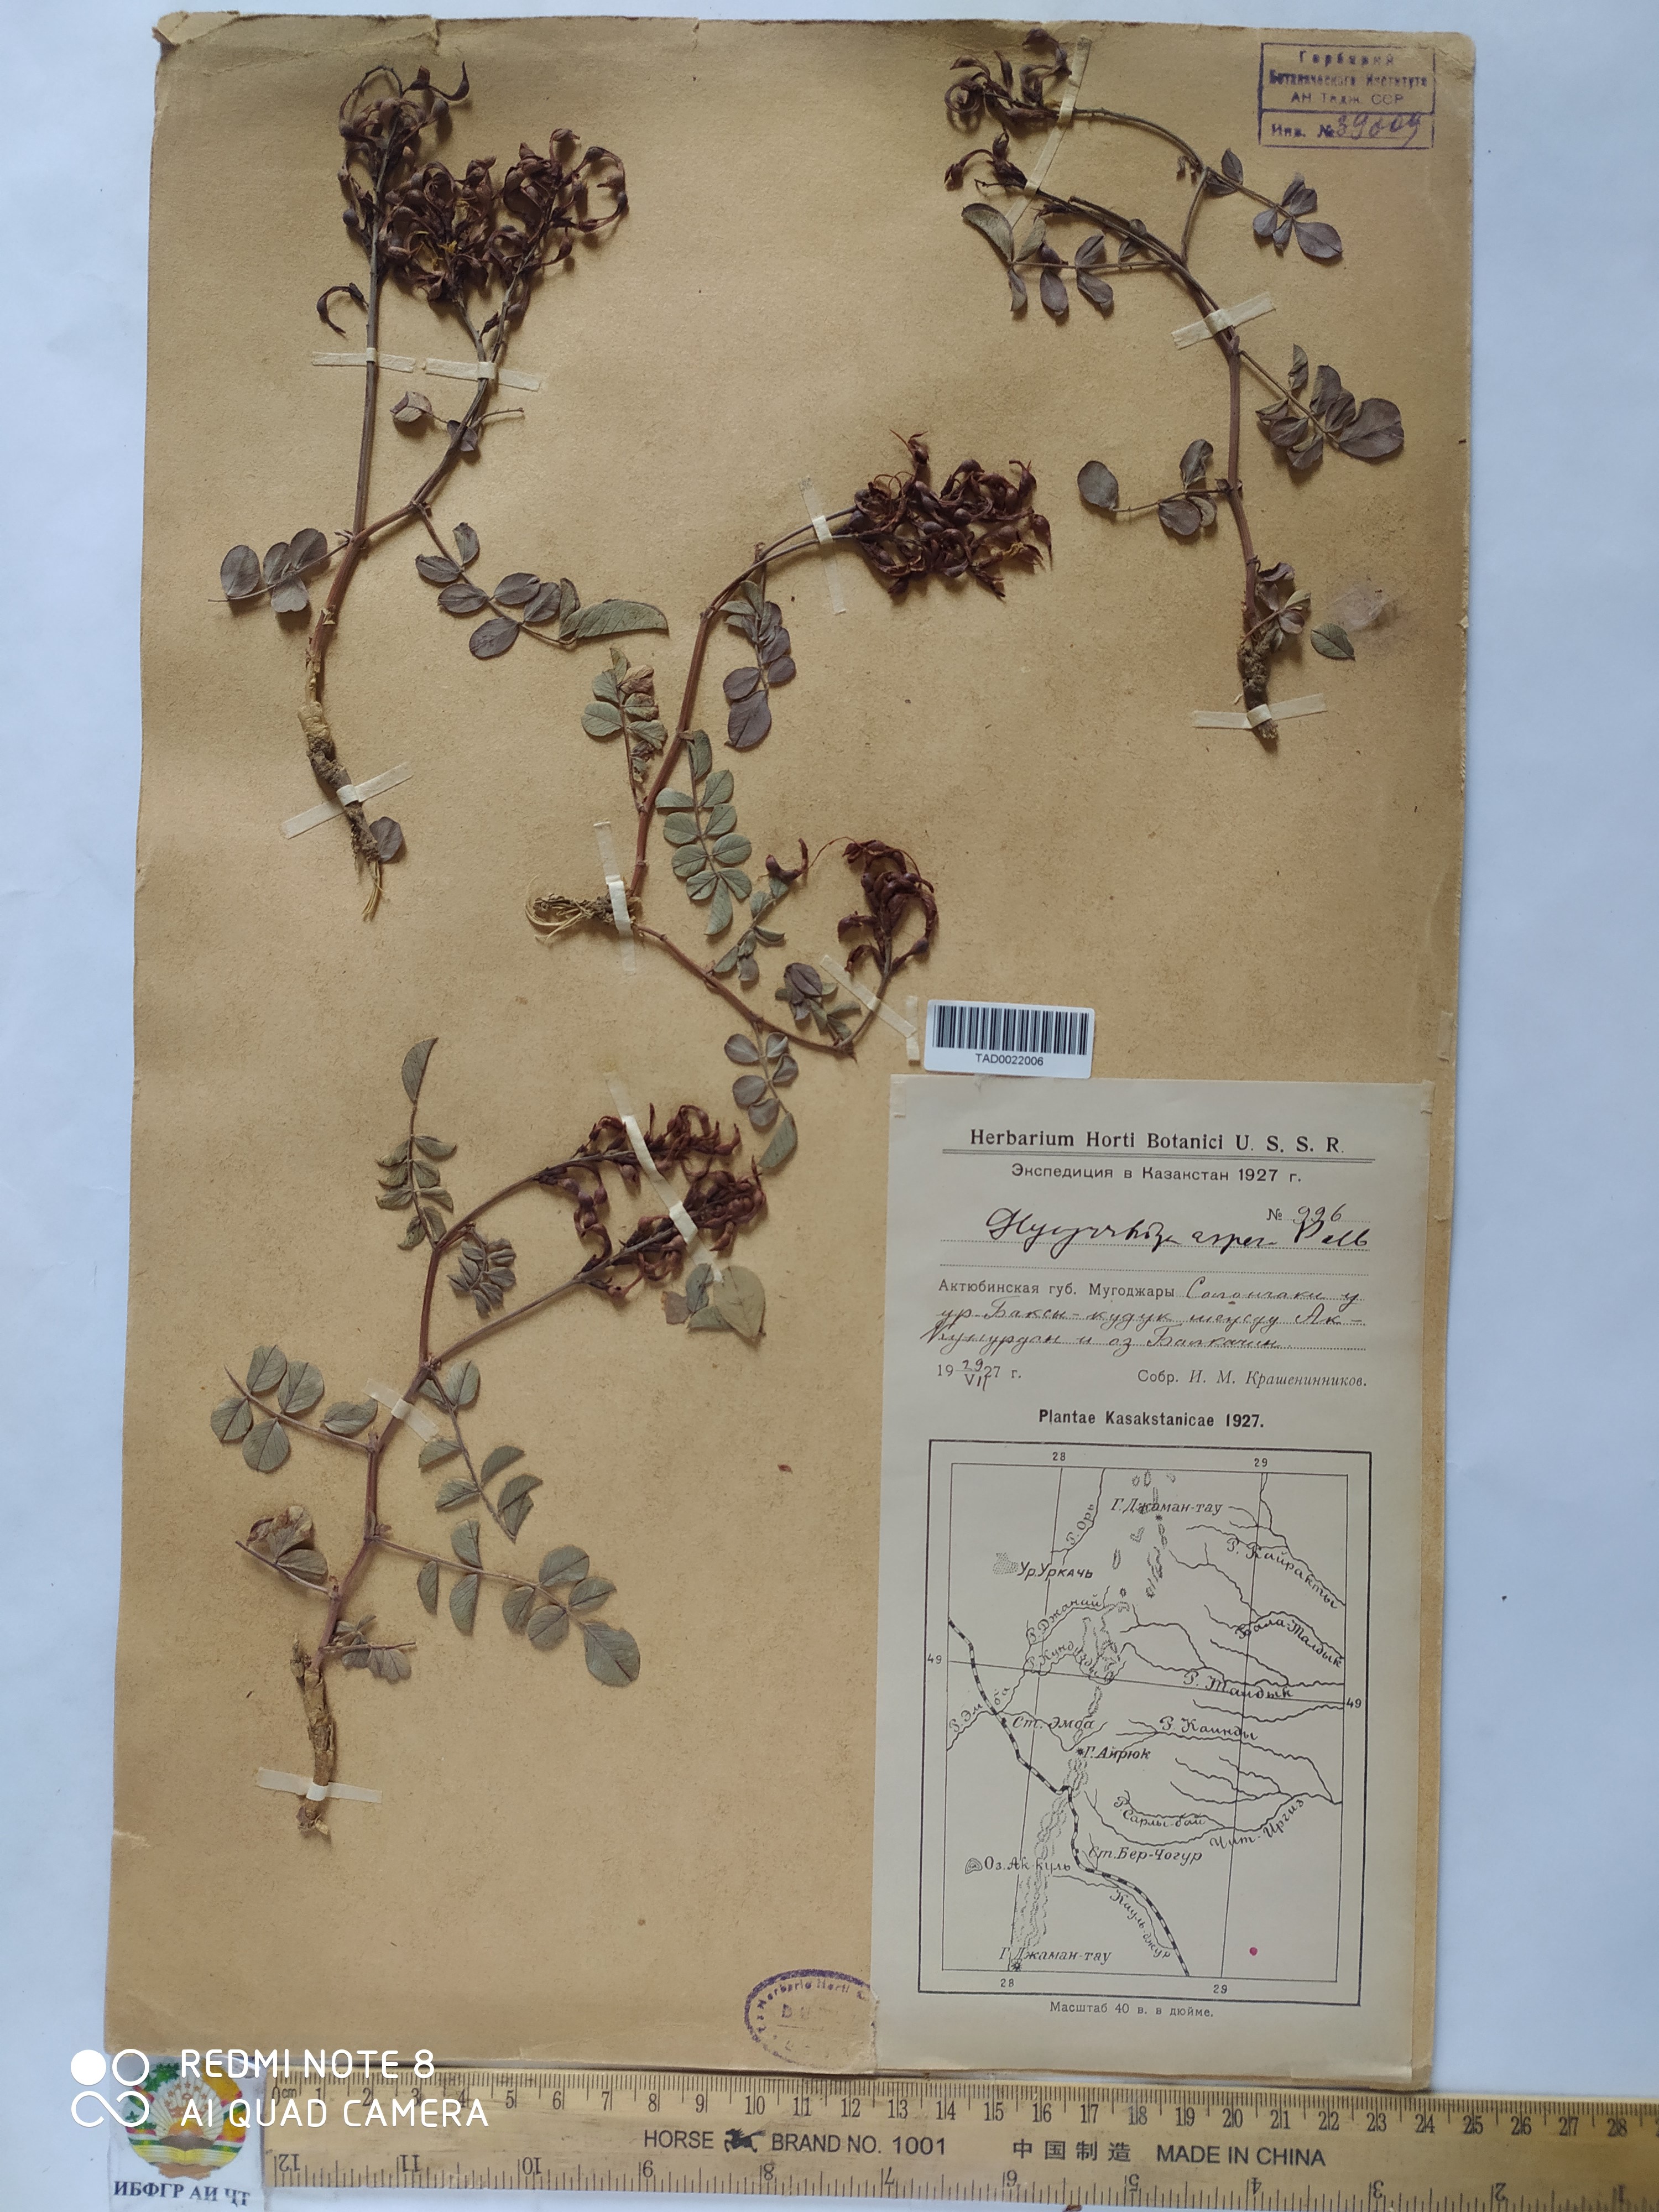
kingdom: Plantae
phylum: Tracheophyta
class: Magnoliopsida
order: Fabales
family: Fabaceae
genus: Glycyrrhiza
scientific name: Glycyrrhiza aspera
